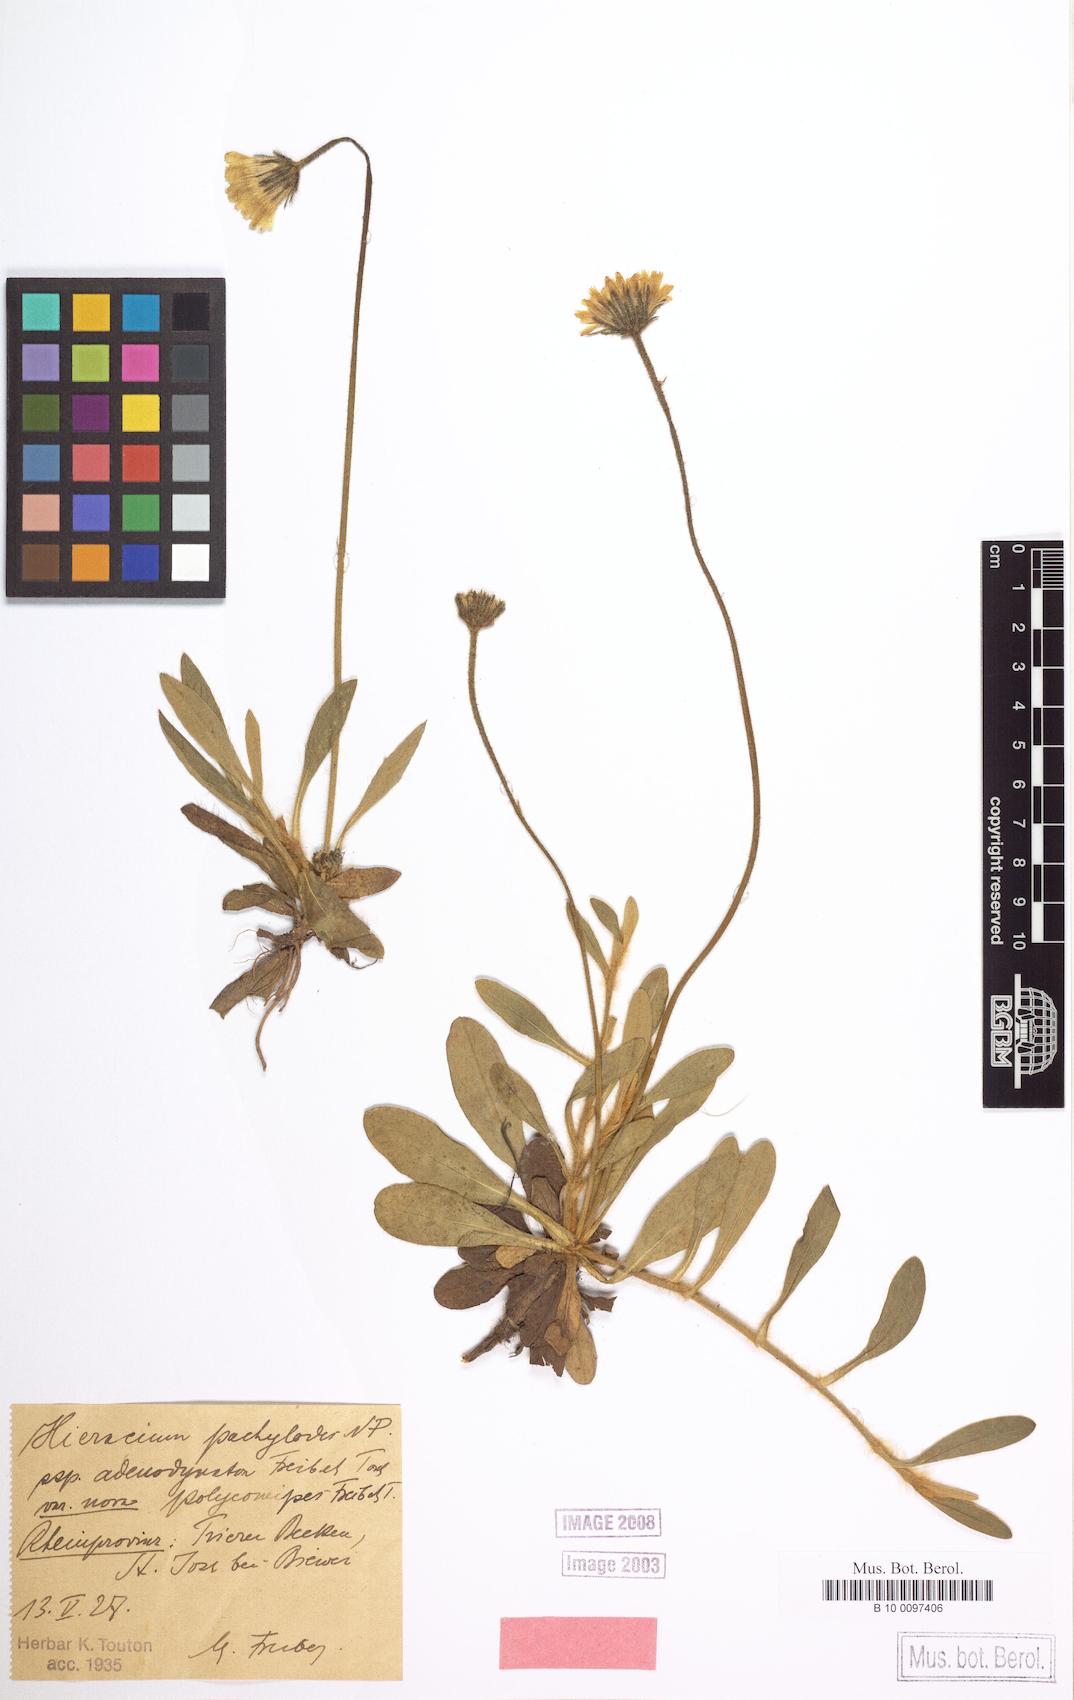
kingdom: Plantae
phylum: Tracheophyta
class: Magnoliopsida
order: Asterales
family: Asteraceae
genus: Pilosella
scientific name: Pilosella longisquama
